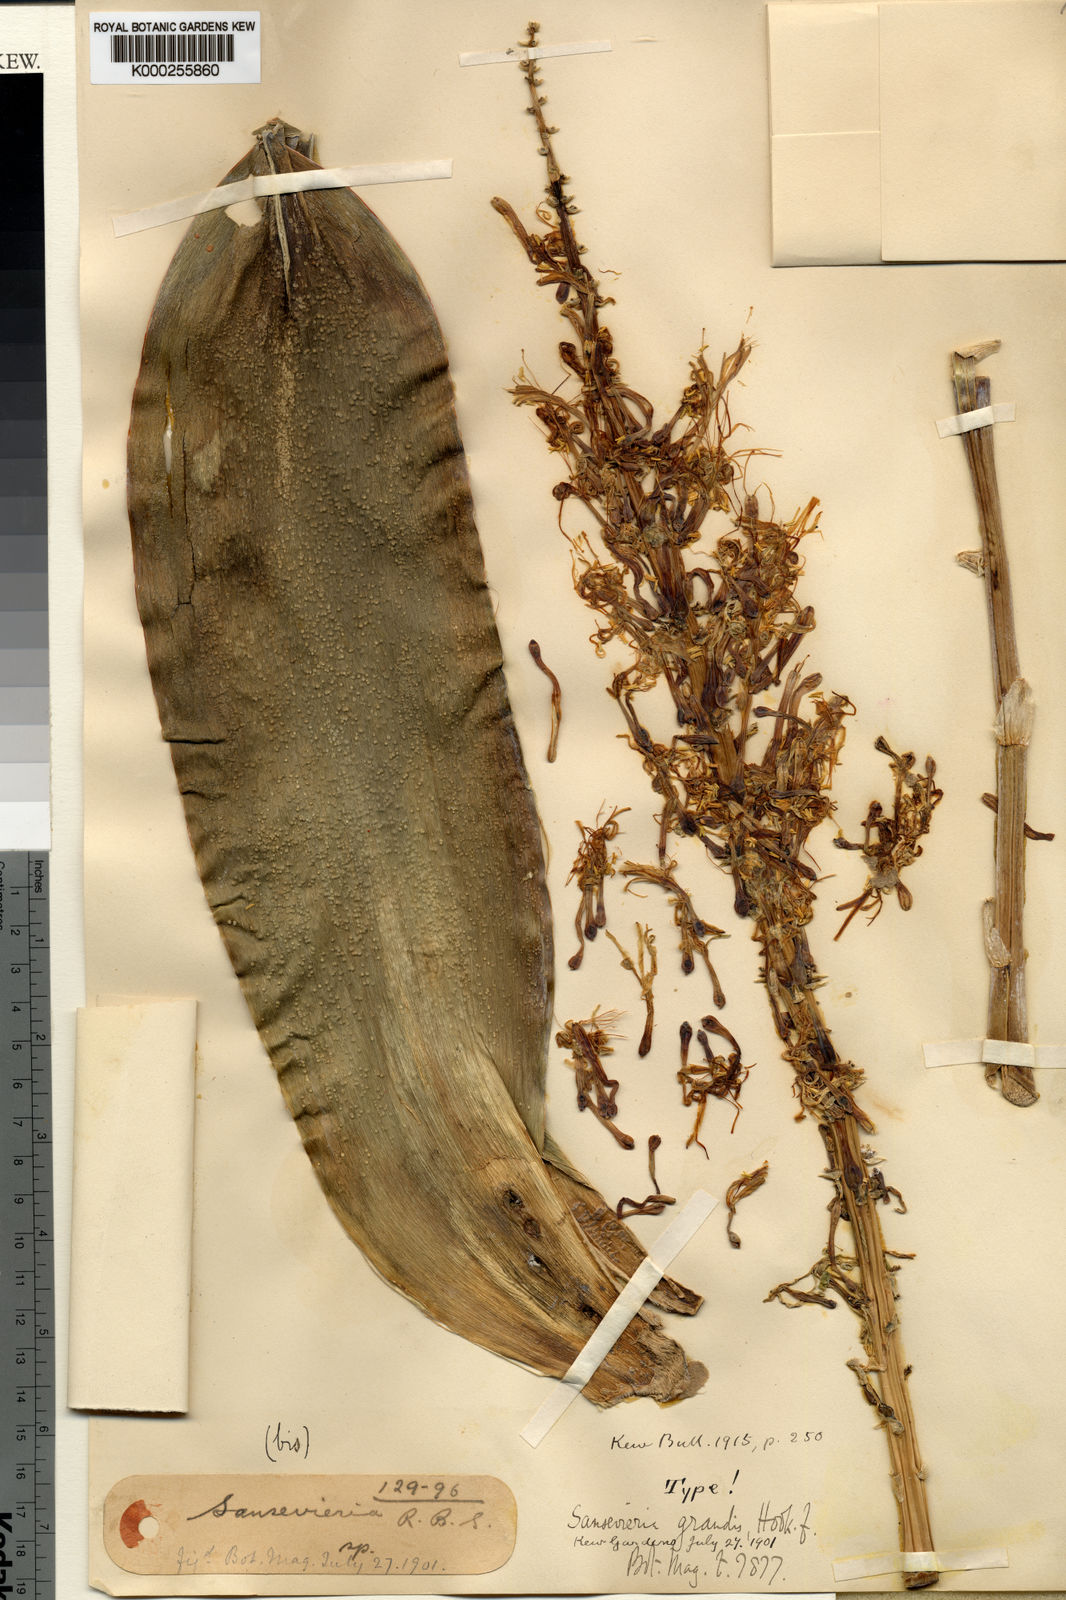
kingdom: Plantae
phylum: Tracheophyta
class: Liliopsida
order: Asparagales
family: Asparagaceae
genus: Dracaena
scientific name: Dracaena hyacinthoides
